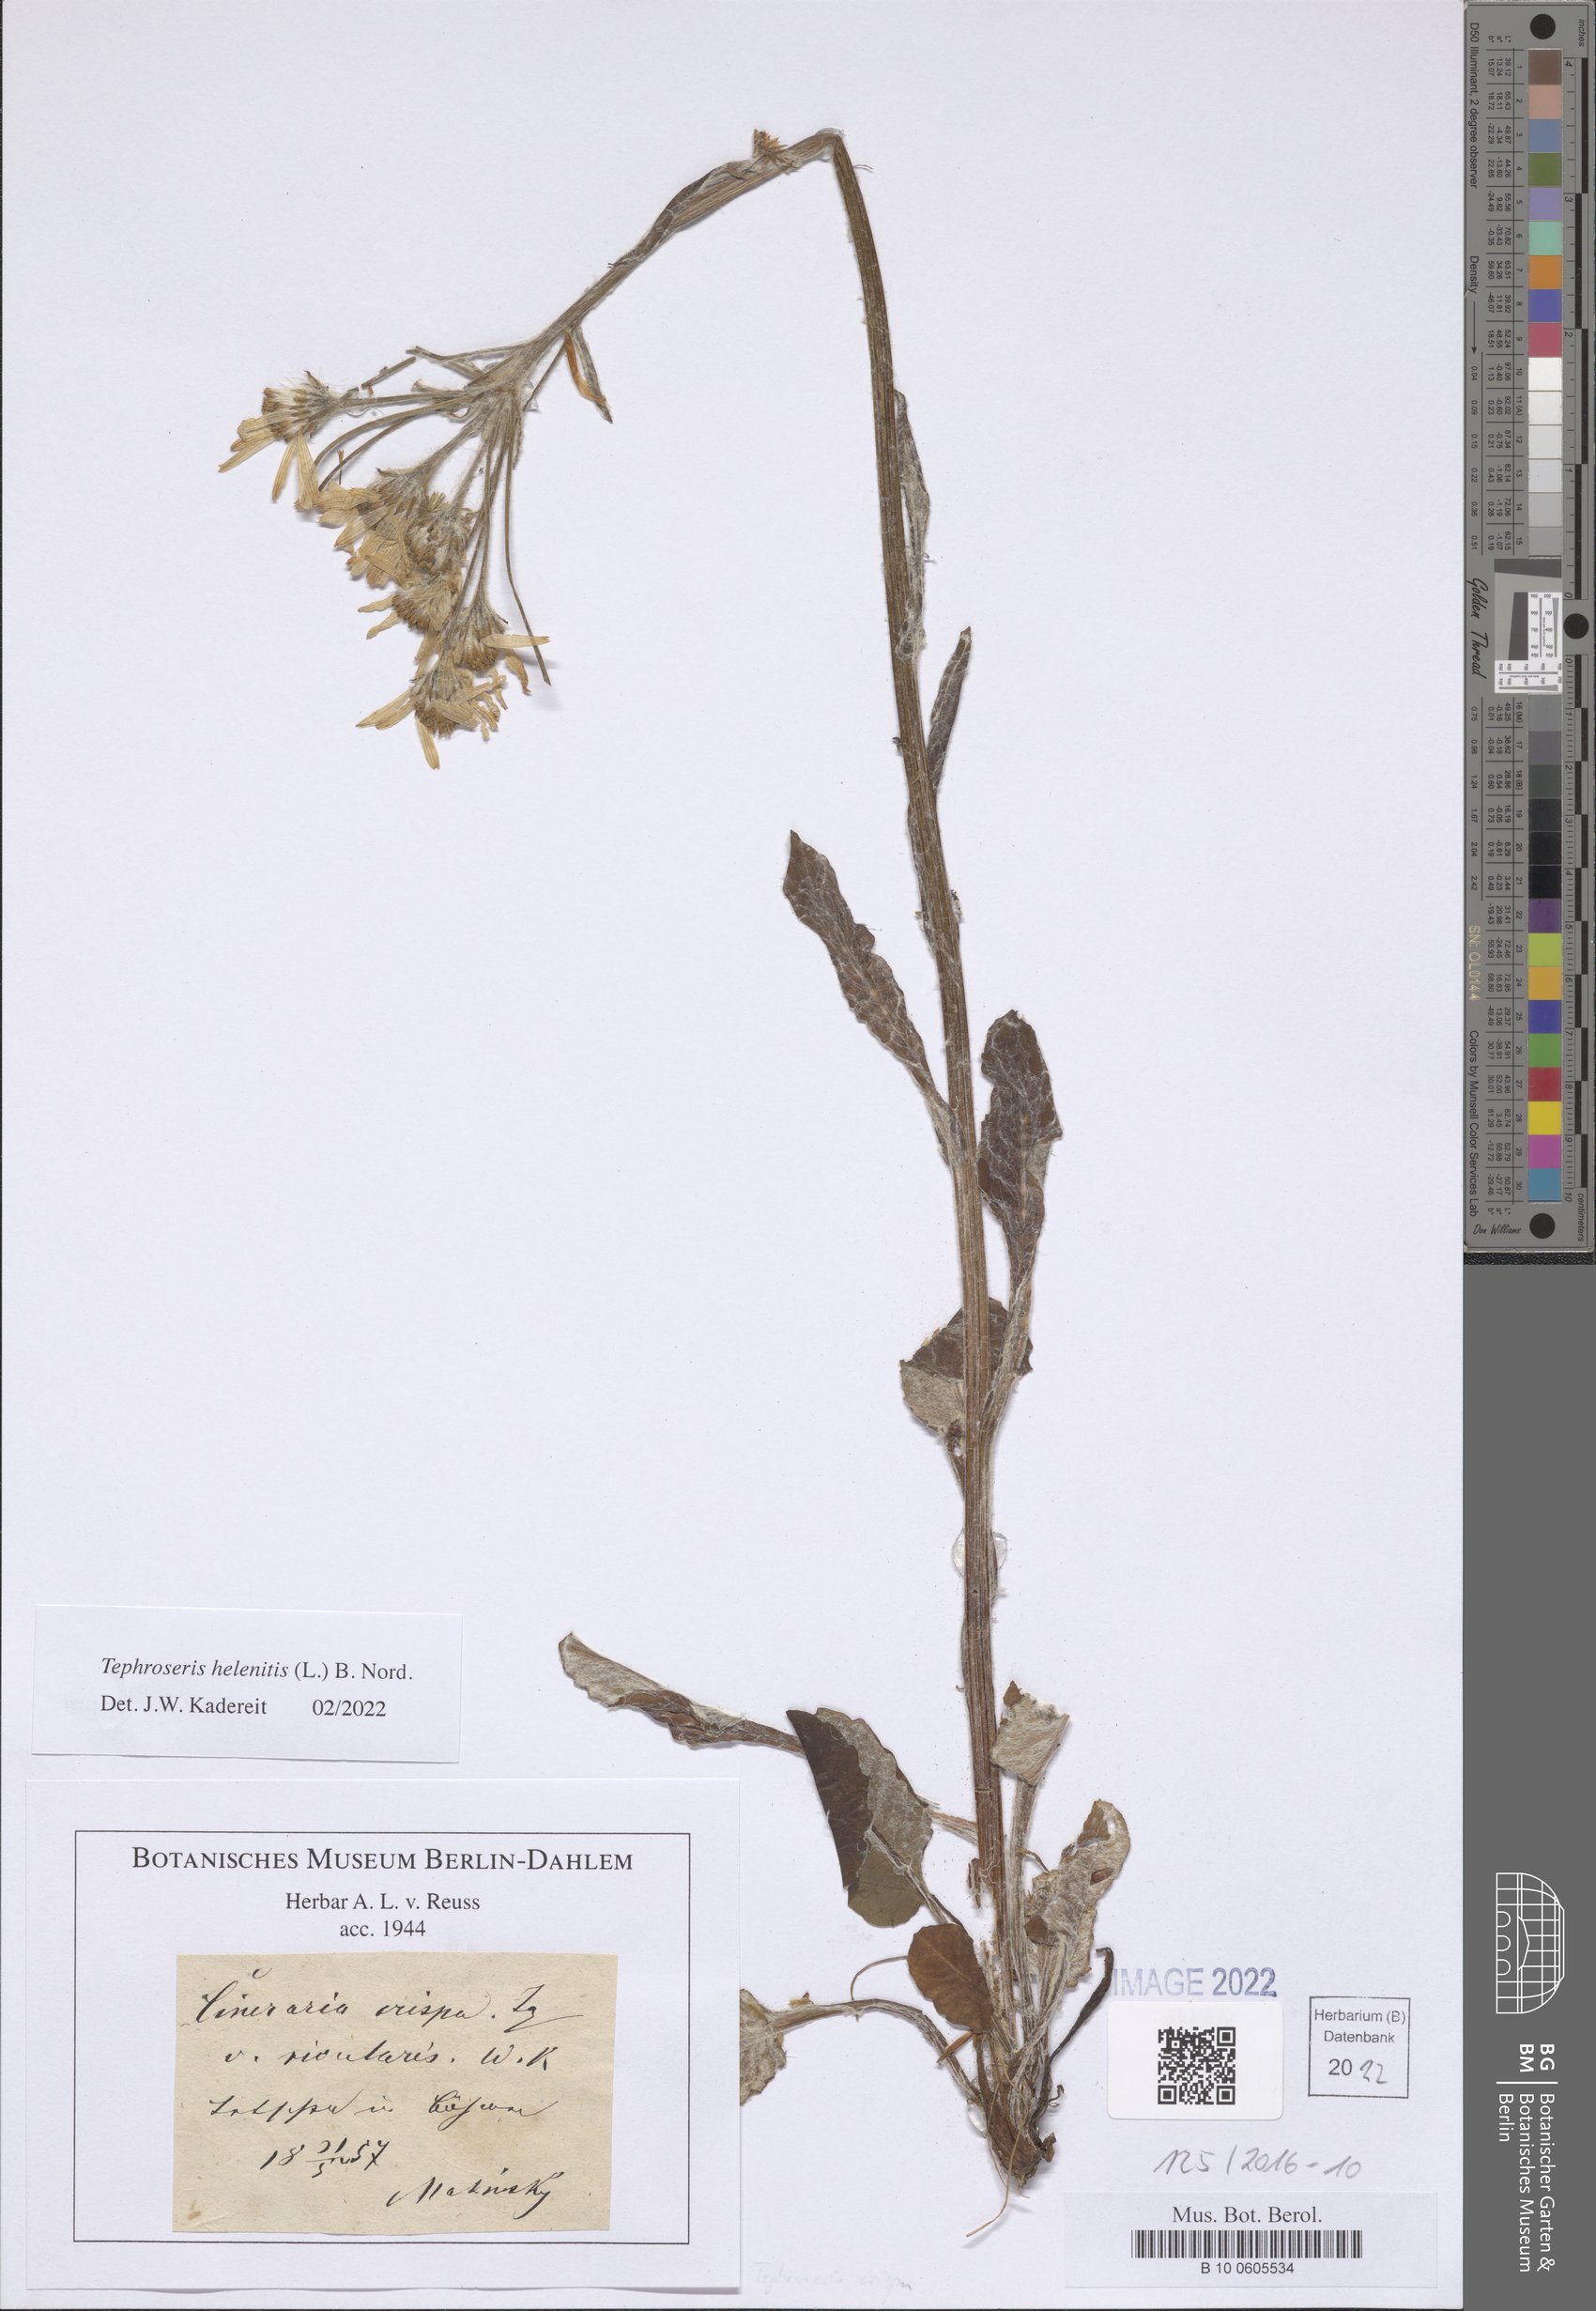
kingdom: Plantae
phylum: Tracheophyta
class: Magnoliopsida
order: Asterales
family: Asteraceae
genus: Tephroseris
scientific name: Tephroseris helenitis
